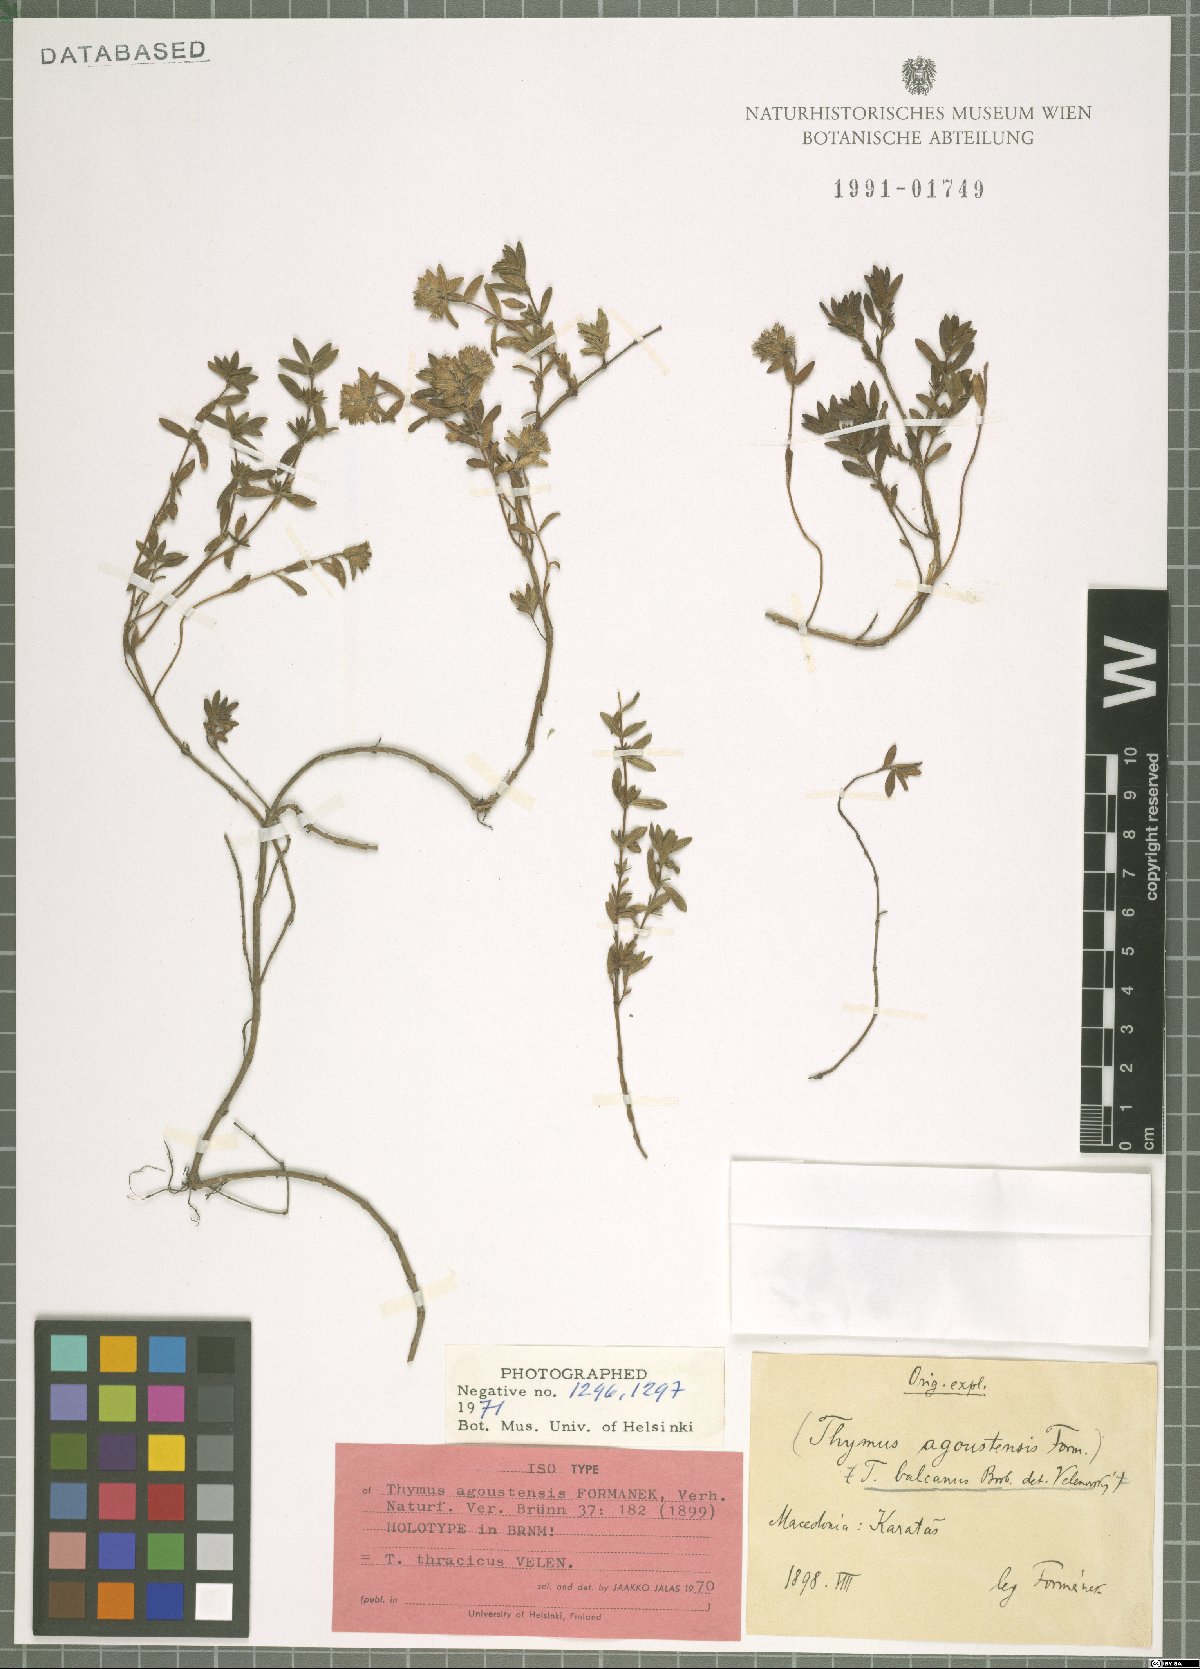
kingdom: Plantae
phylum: Tracheophyta
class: Magnoliopsida
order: Lamiales
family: Lamiaceae
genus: Thymus
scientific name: Thymus thracicus
